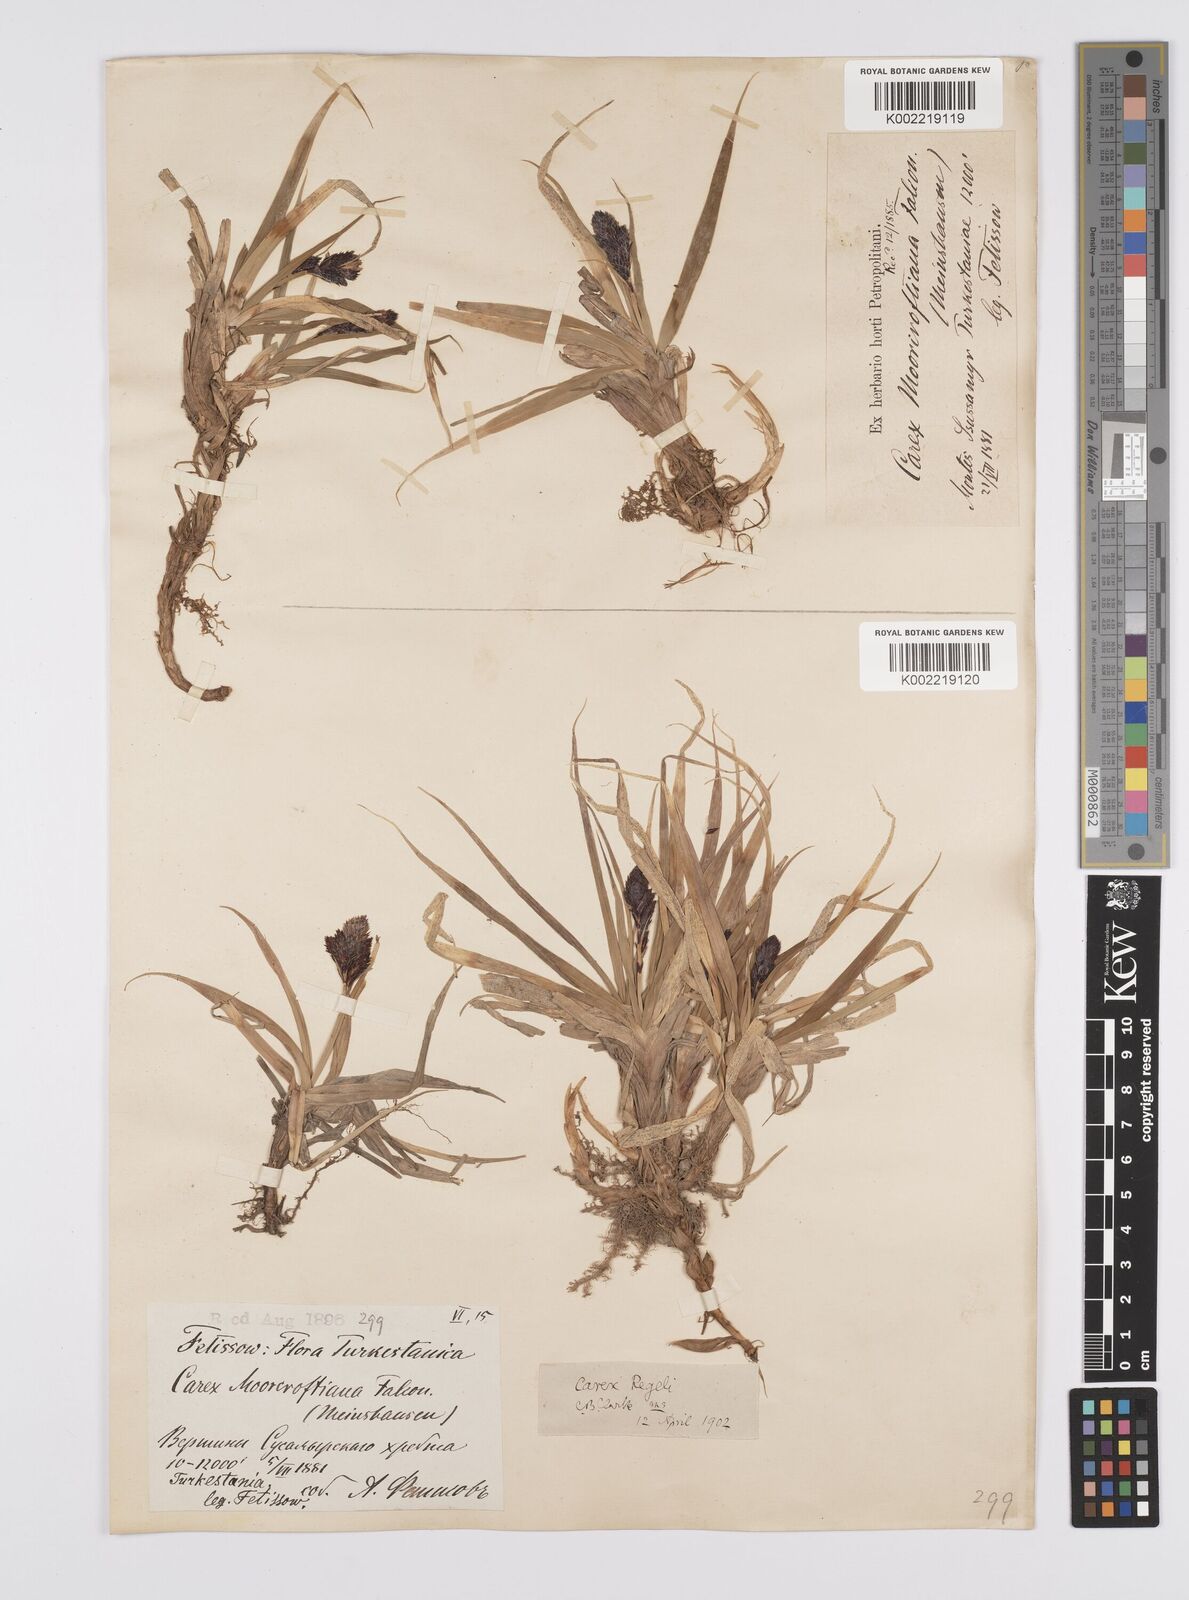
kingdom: Plantae
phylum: Tracheophyta
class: Liliopsida
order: Poales
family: Cyperaceae
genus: Carex
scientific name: Carex melanantha
